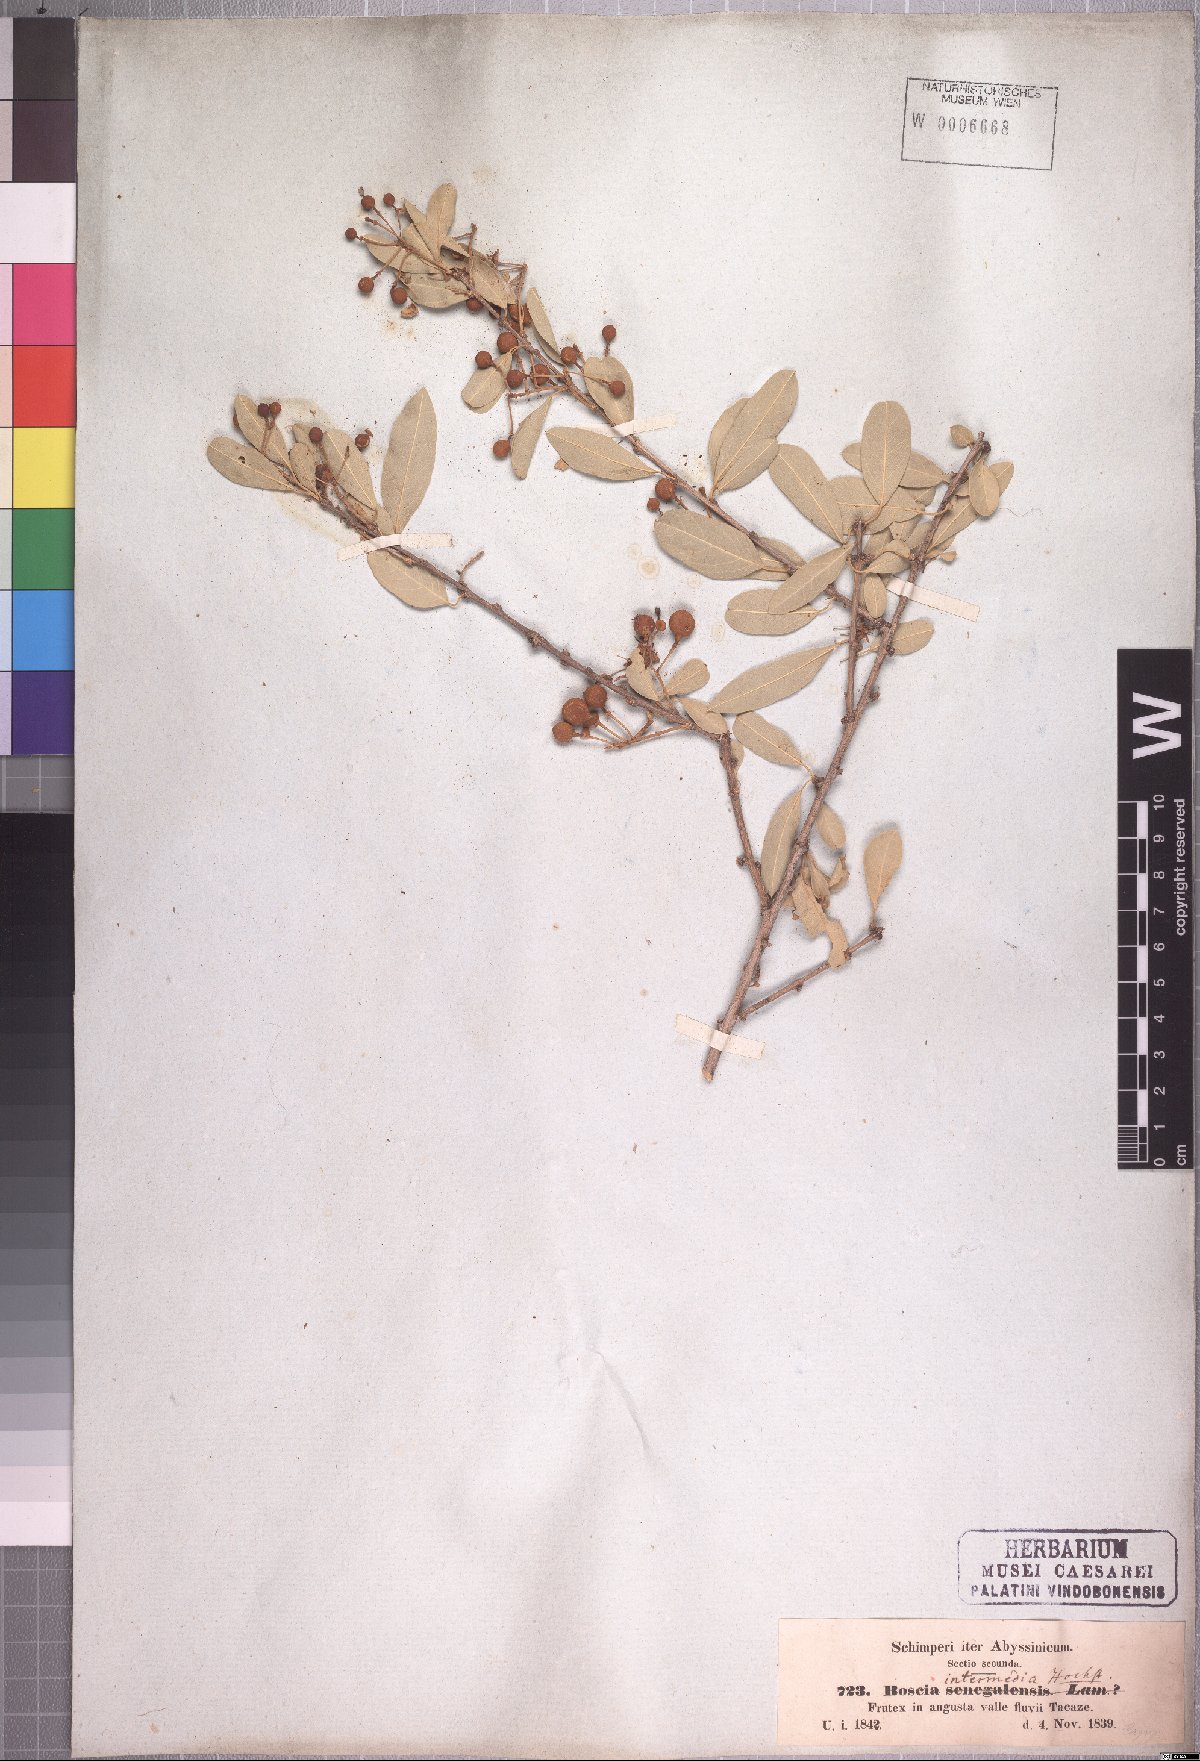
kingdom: Plantae
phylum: Tracheophyta
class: Magnoliopsida
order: Brassicales
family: Capparaceae
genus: Boscia
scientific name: Boscia angustifolia
